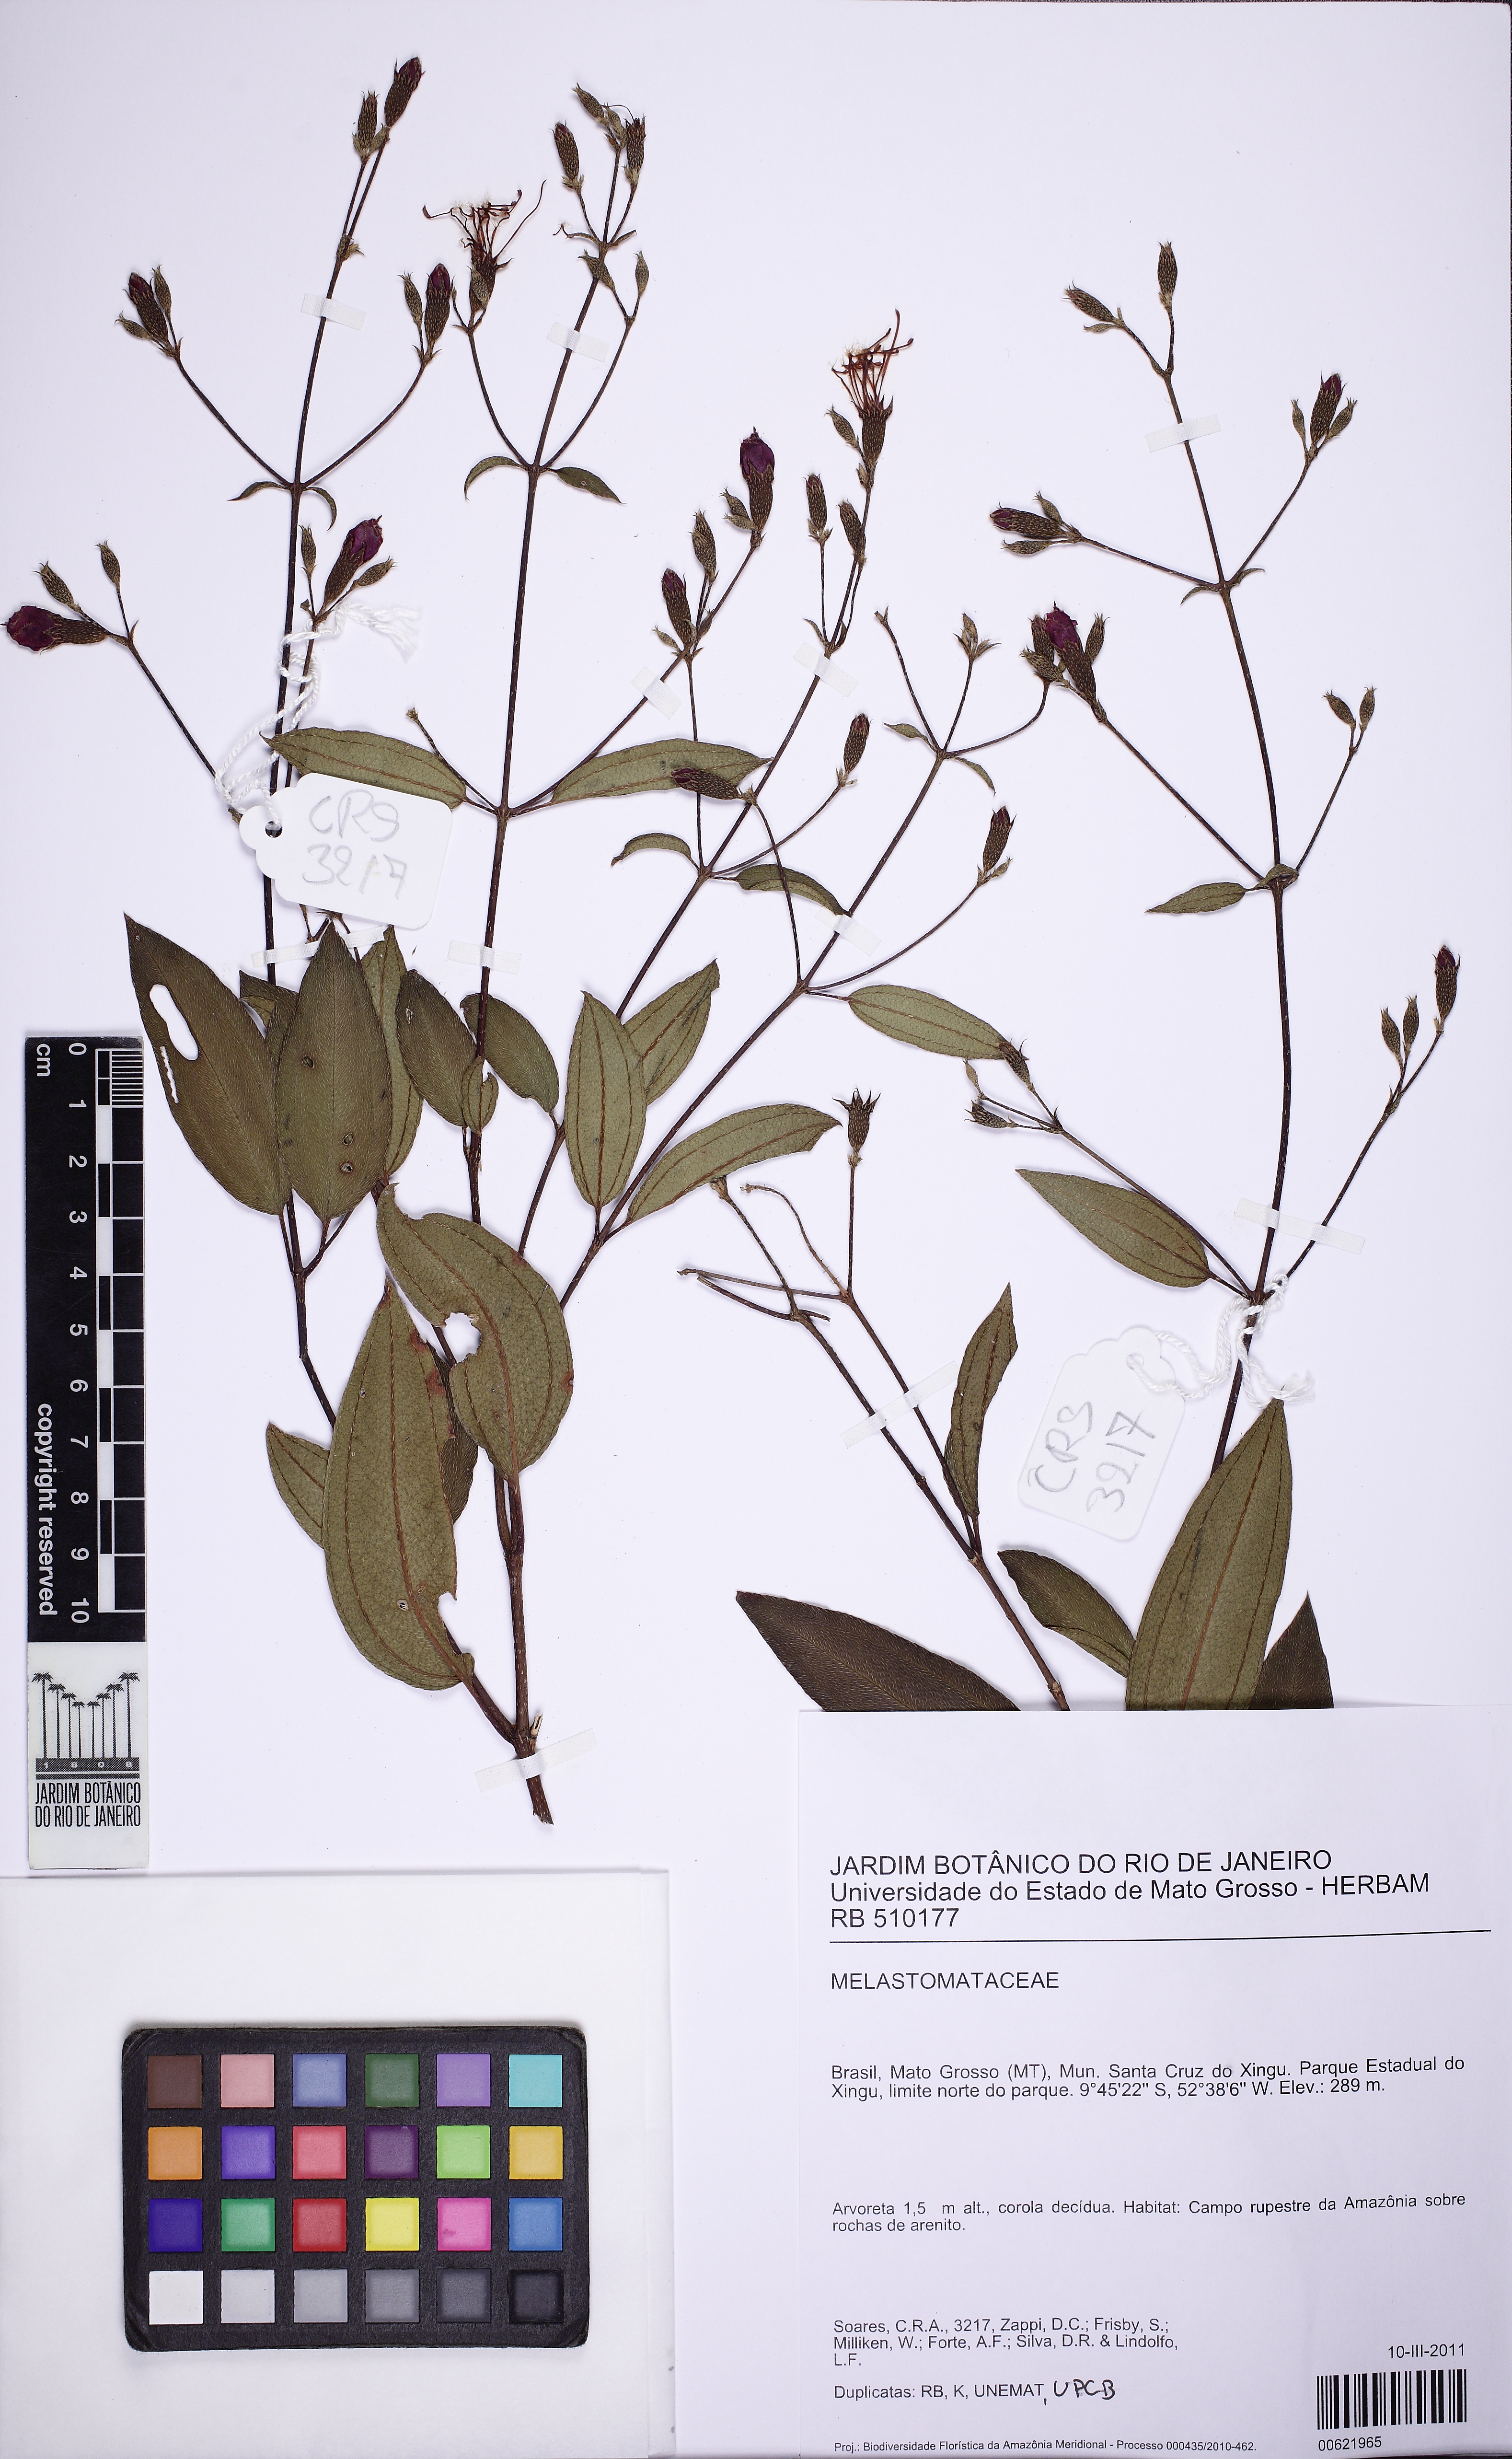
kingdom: Plantae
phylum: Tracheophyta
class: Magnoliopsida
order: Myrtales
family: Melastomataceae
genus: Tibouchina
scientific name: Tibouchina rosanae
